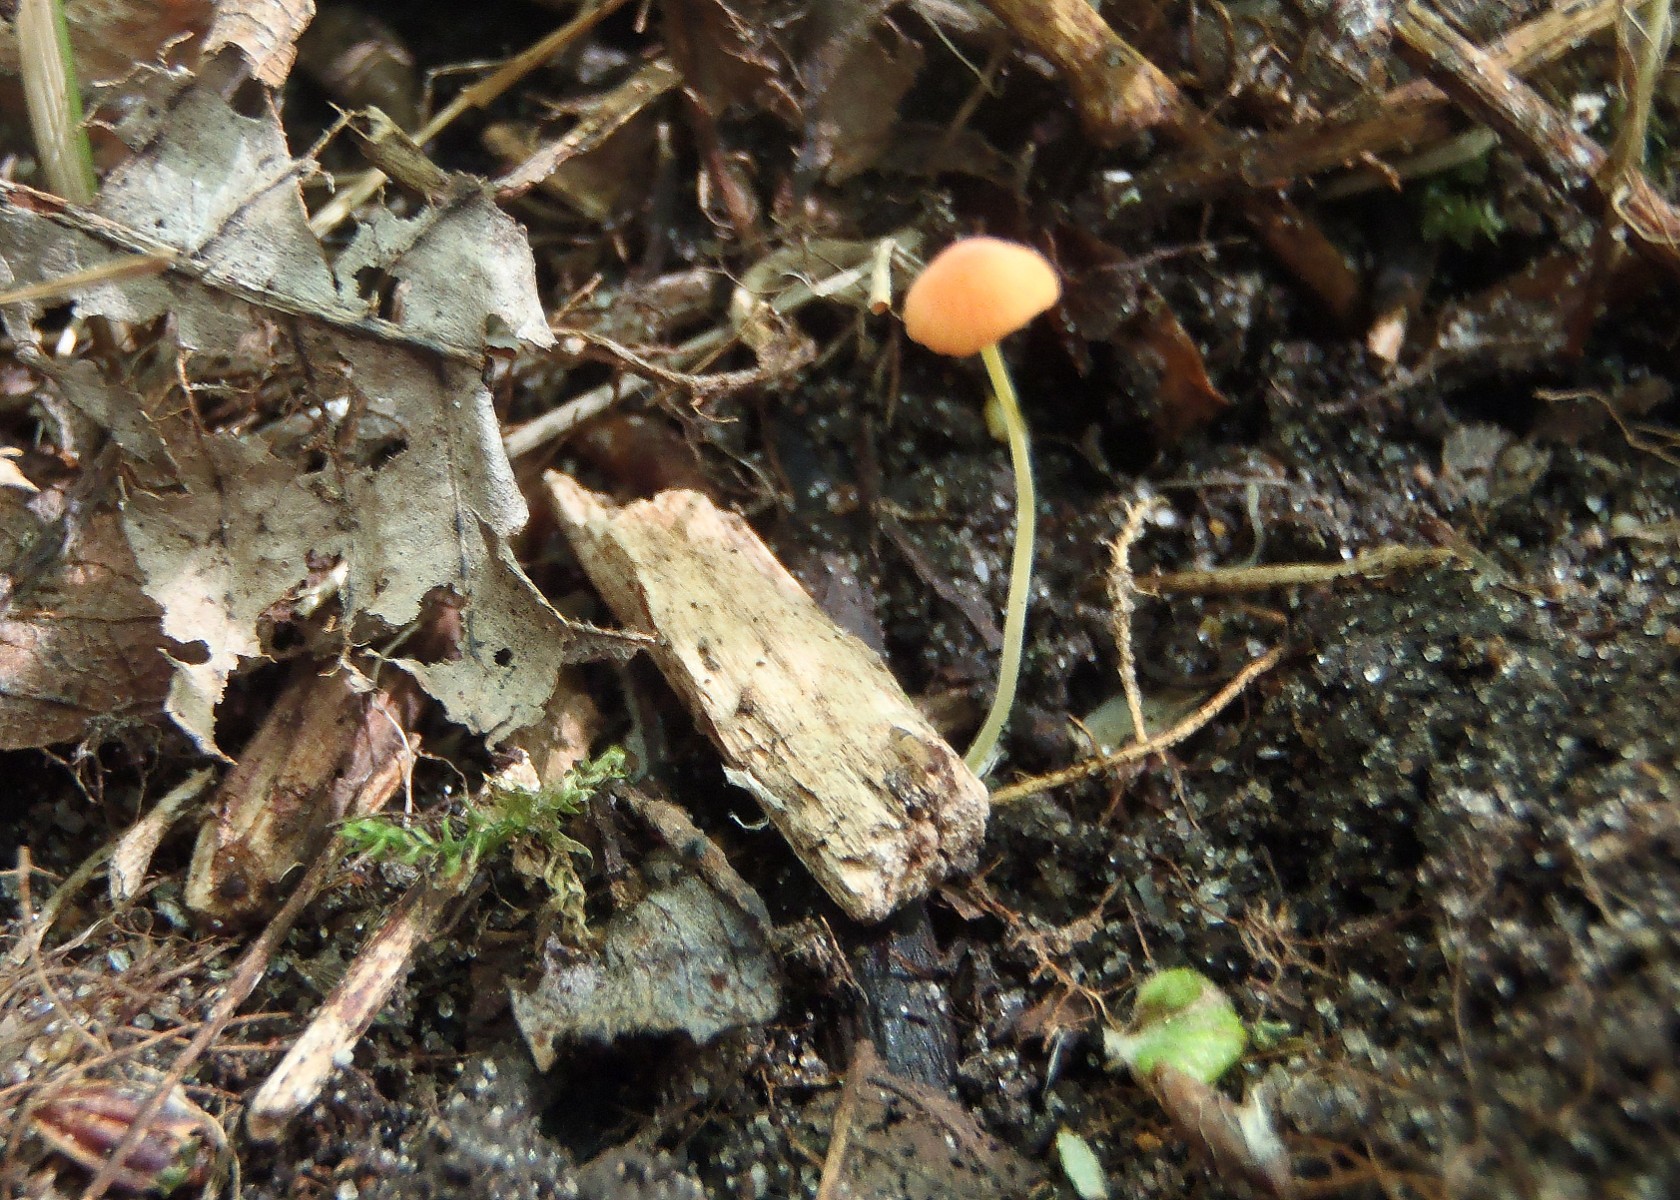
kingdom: Fungi
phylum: Basidiomycota
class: Agaricomycetes
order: Agaricales
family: Mycenaceae
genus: Mycena
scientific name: Mycena acicula
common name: orange huesvamp
